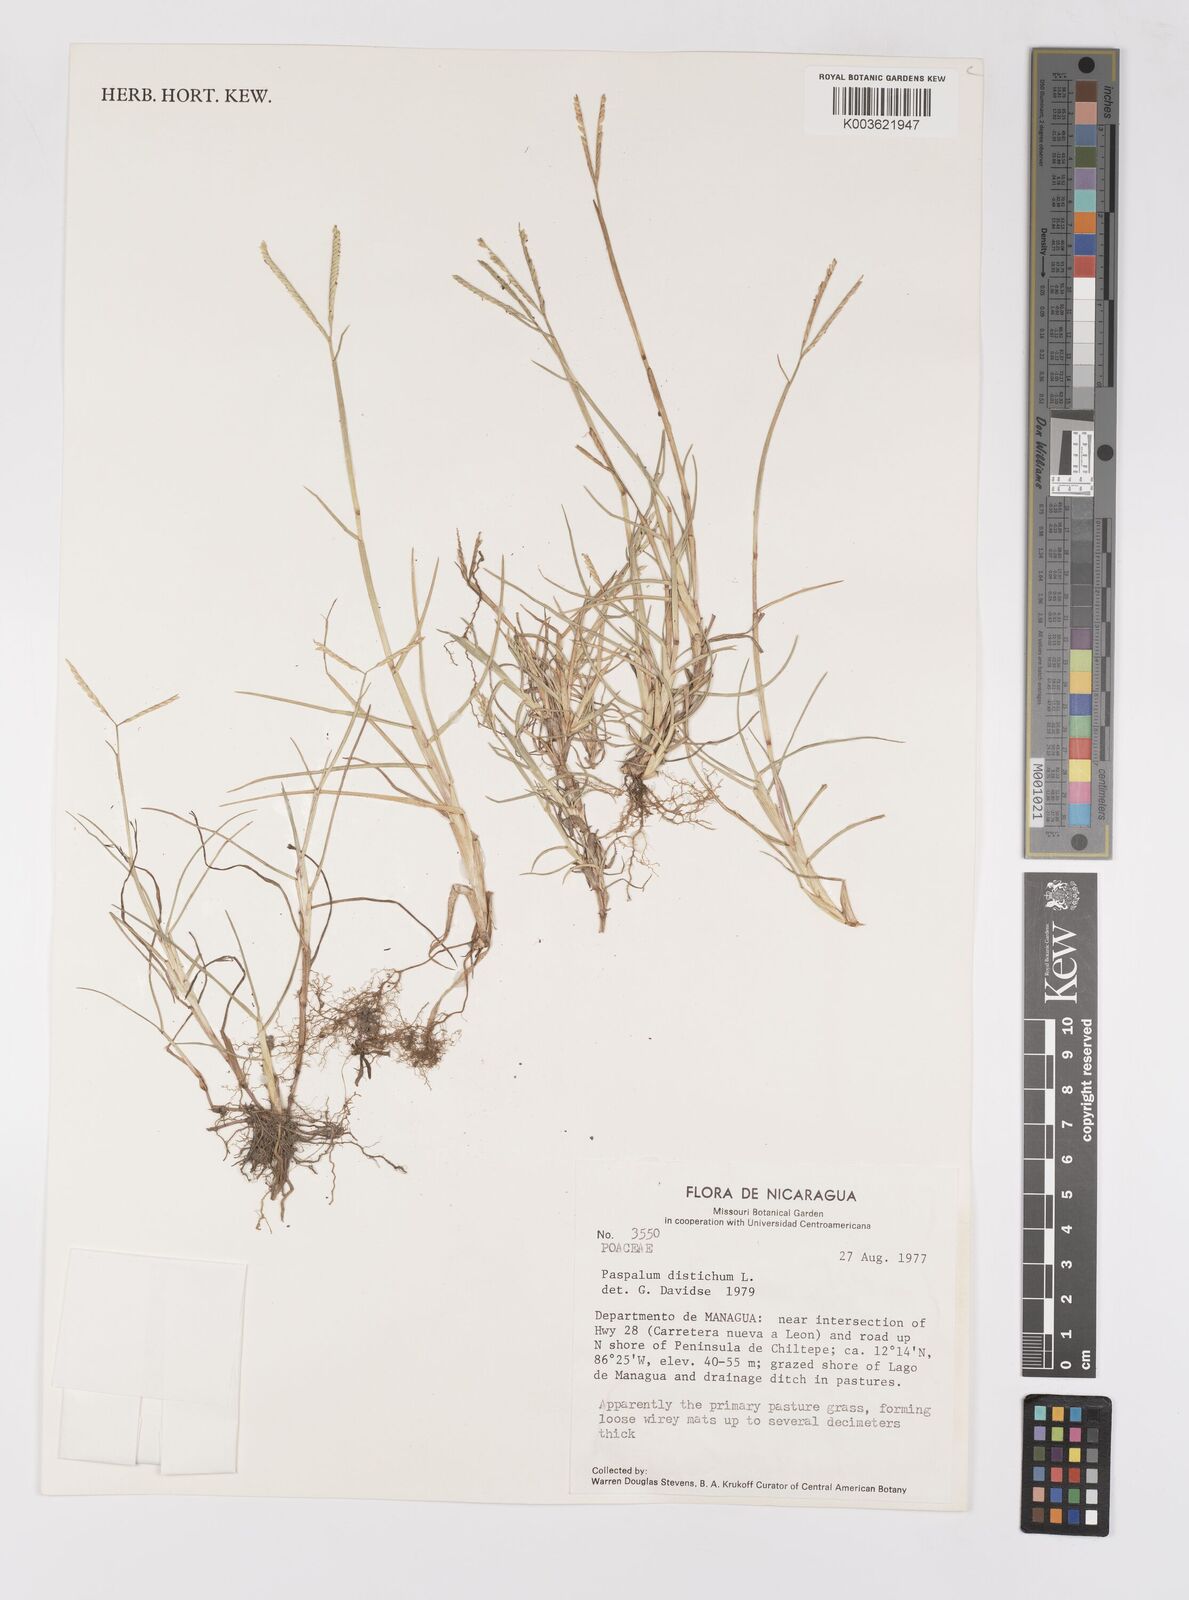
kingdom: Plantae
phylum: Tracheophyta
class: Liliopsida
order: Poales
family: Poaceae
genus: Paspalum
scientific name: Paspalum distichum
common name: Knotgrass
